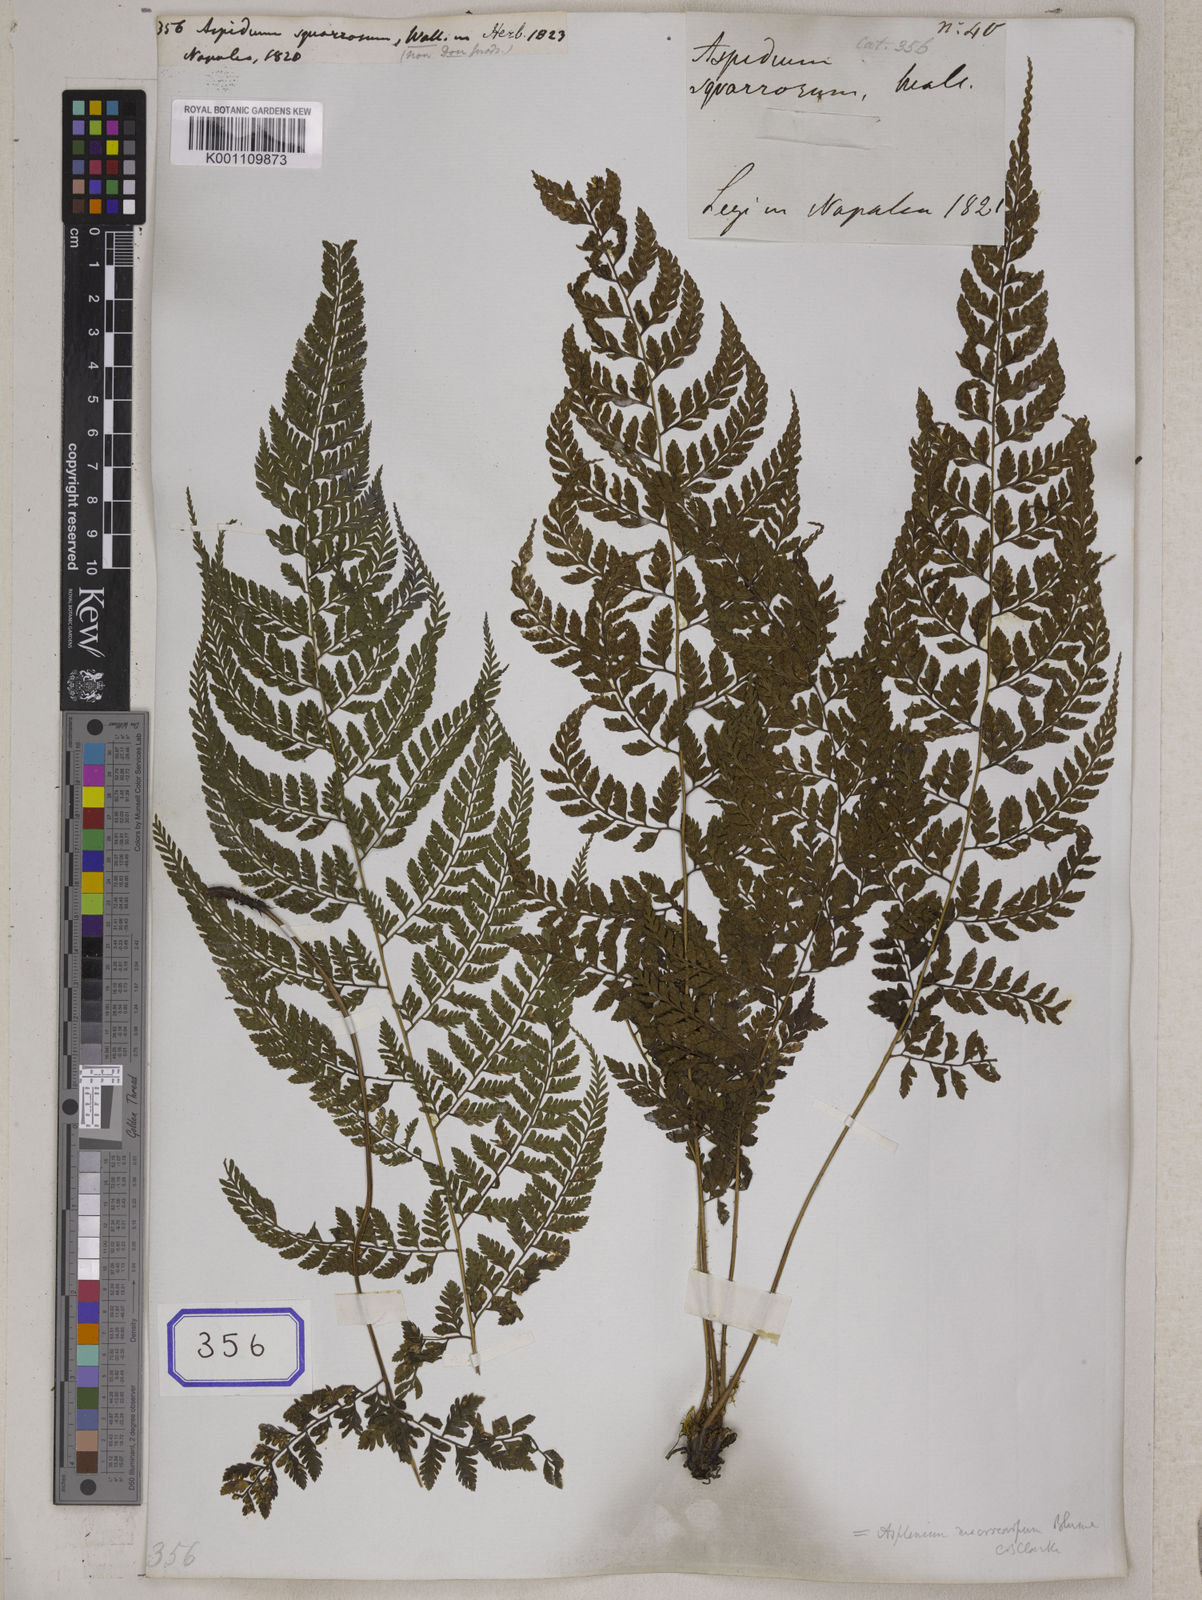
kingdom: Plantae
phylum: Tracheophyta
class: Polypodiopsida
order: Polypodiales
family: Athyriaceae
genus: Athyrium
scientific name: Athyrium foliolosum
